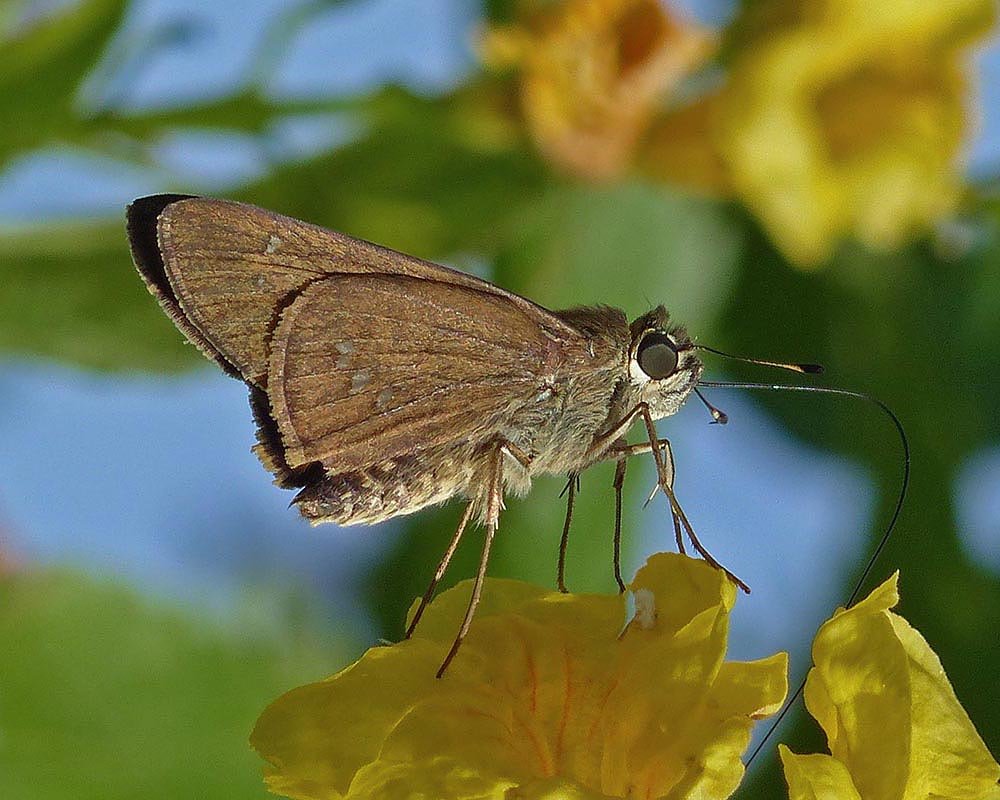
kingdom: Animalia
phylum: Arthropoda
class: Insecta
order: Lepidoptera
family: Hesperiidae
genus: Calpodes
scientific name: Calpodes ethlius
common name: Brazilian Skipper
